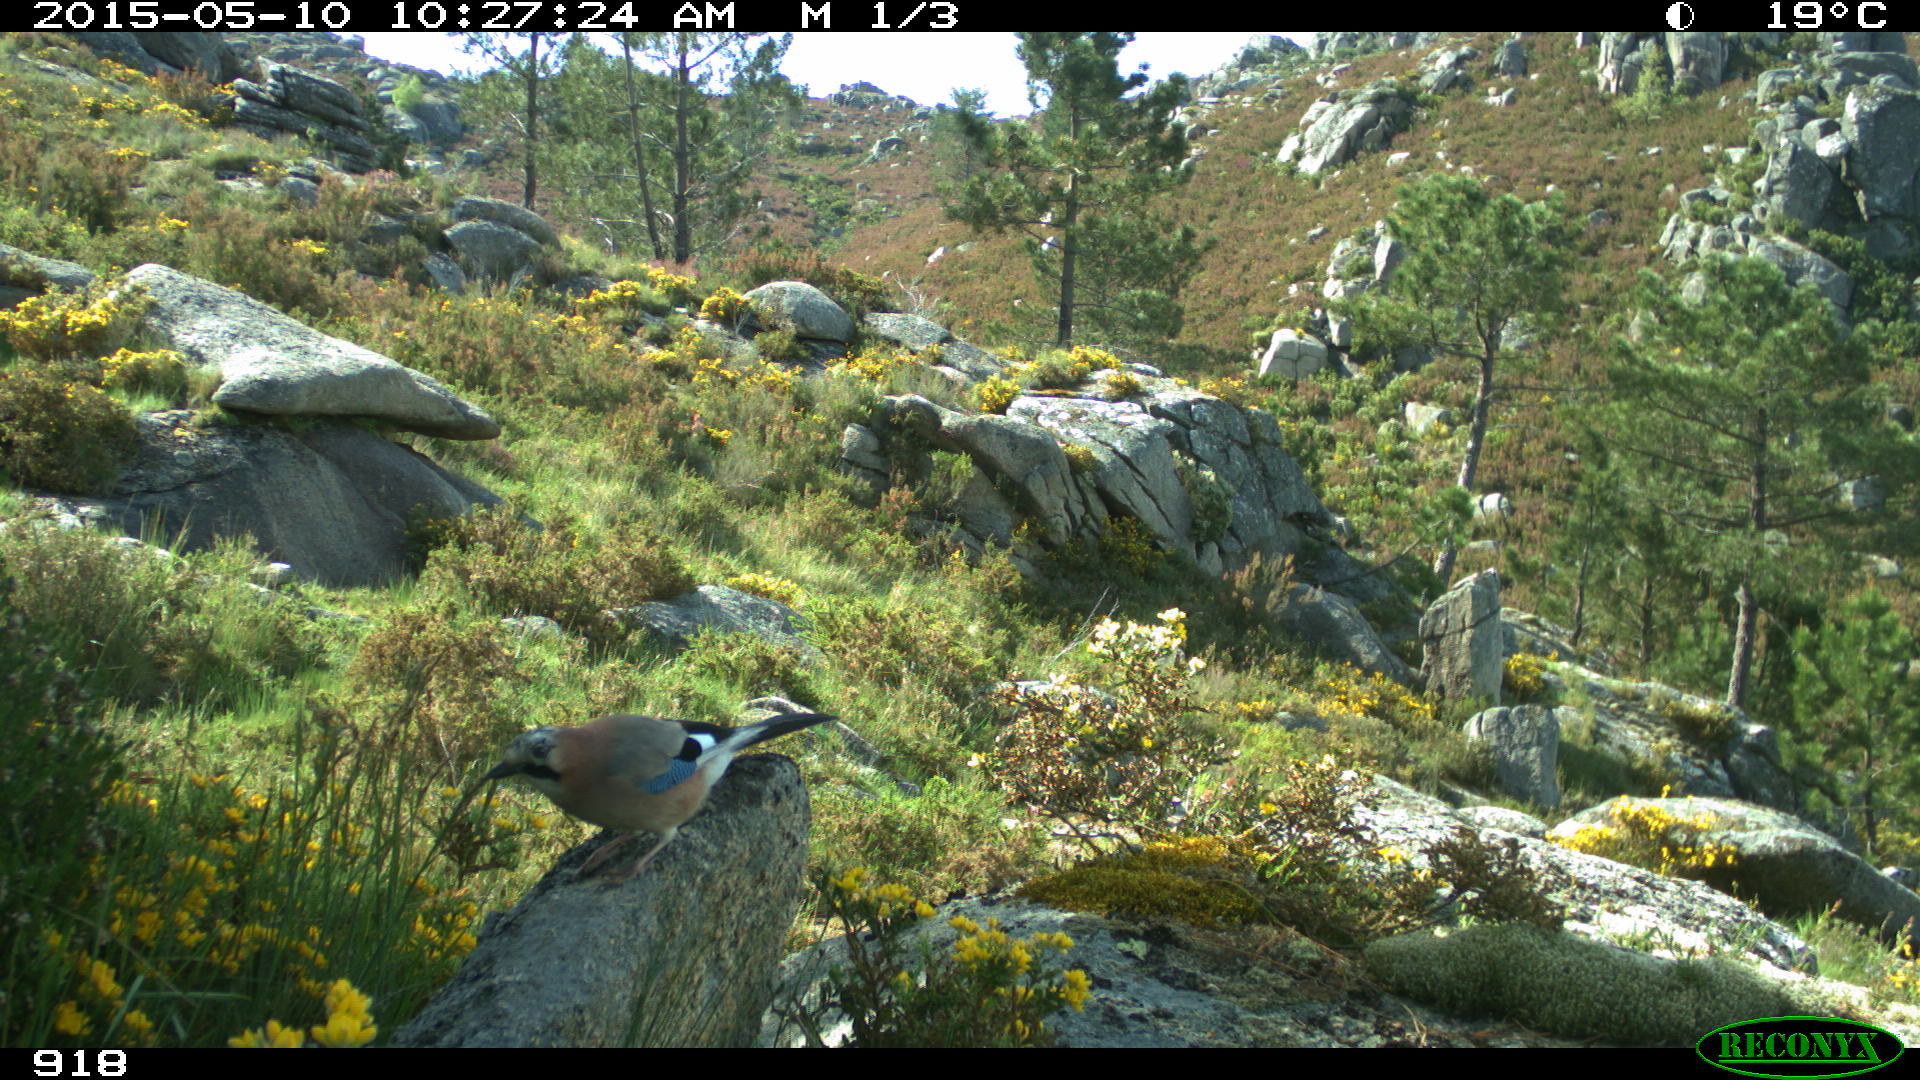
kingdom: Animalia
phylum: Chordata
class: Aves
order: Passeriformes
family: Corvidae
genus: Garrulus
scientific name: Garrulus glandarius
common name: Eurasian jay
